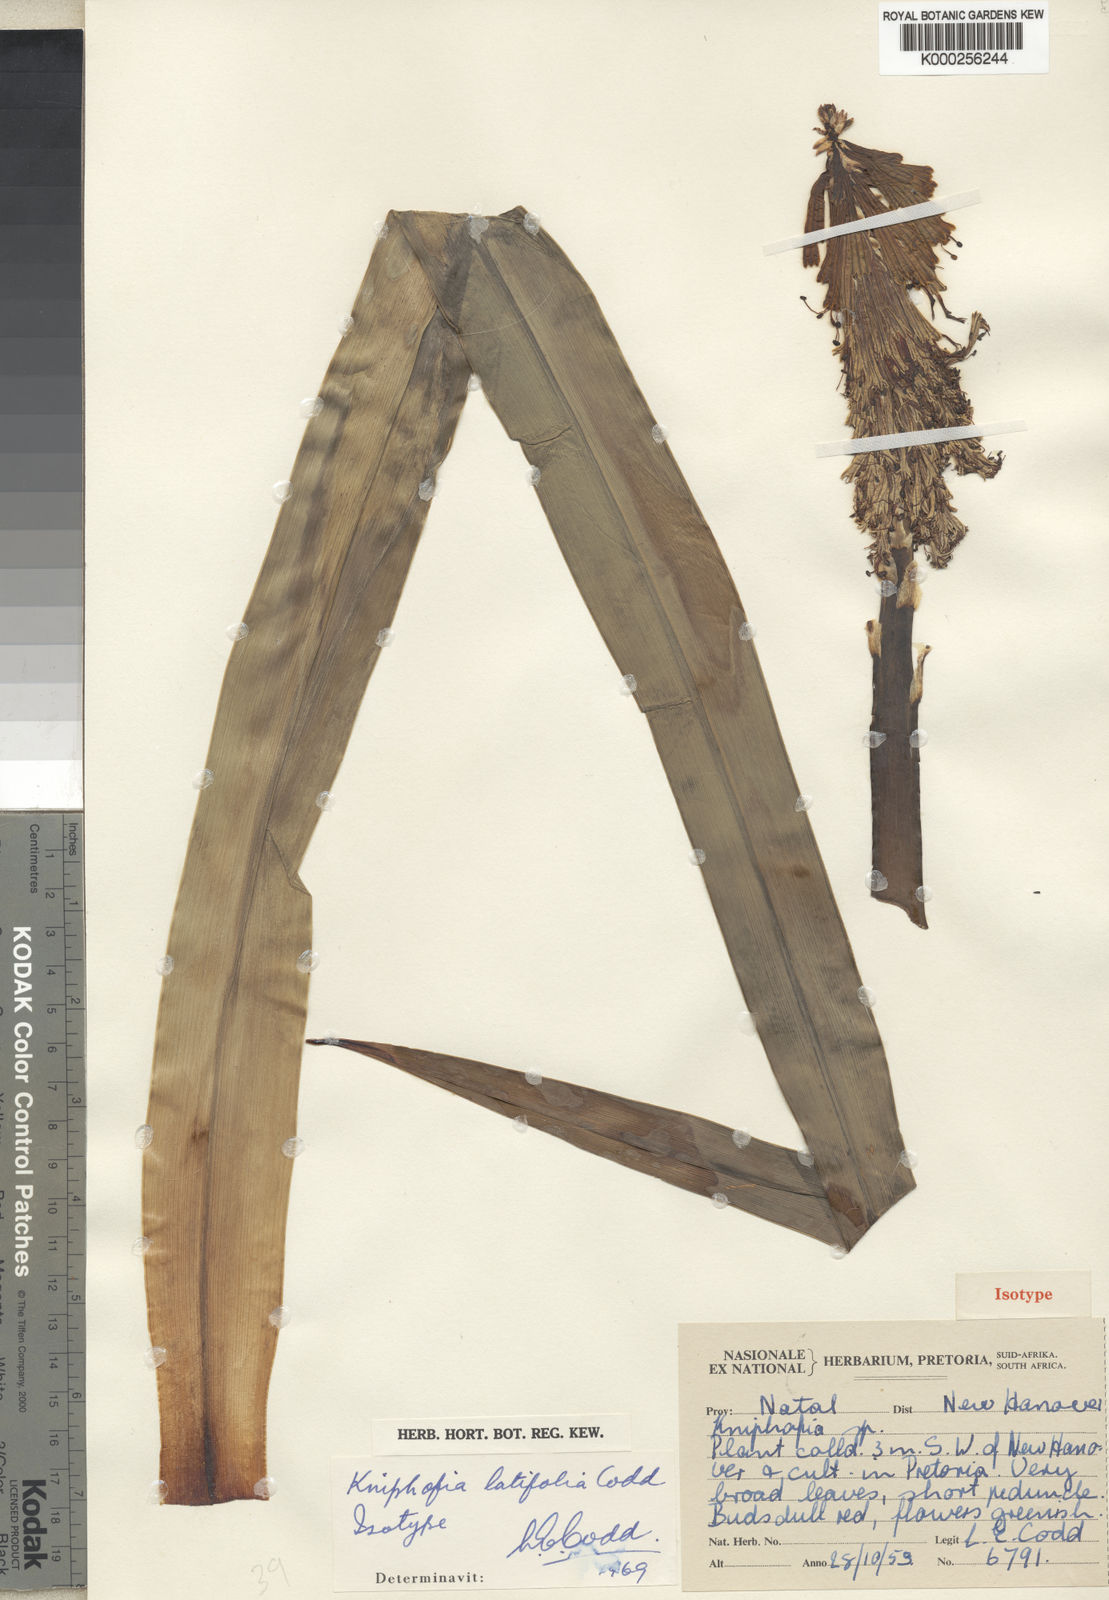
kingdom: Plantae
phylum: Tracheophyta
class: Liliopsida
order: Asparagales
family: Asphodelaceae
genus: Kniphofia
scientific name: Kniphofia latifolia
